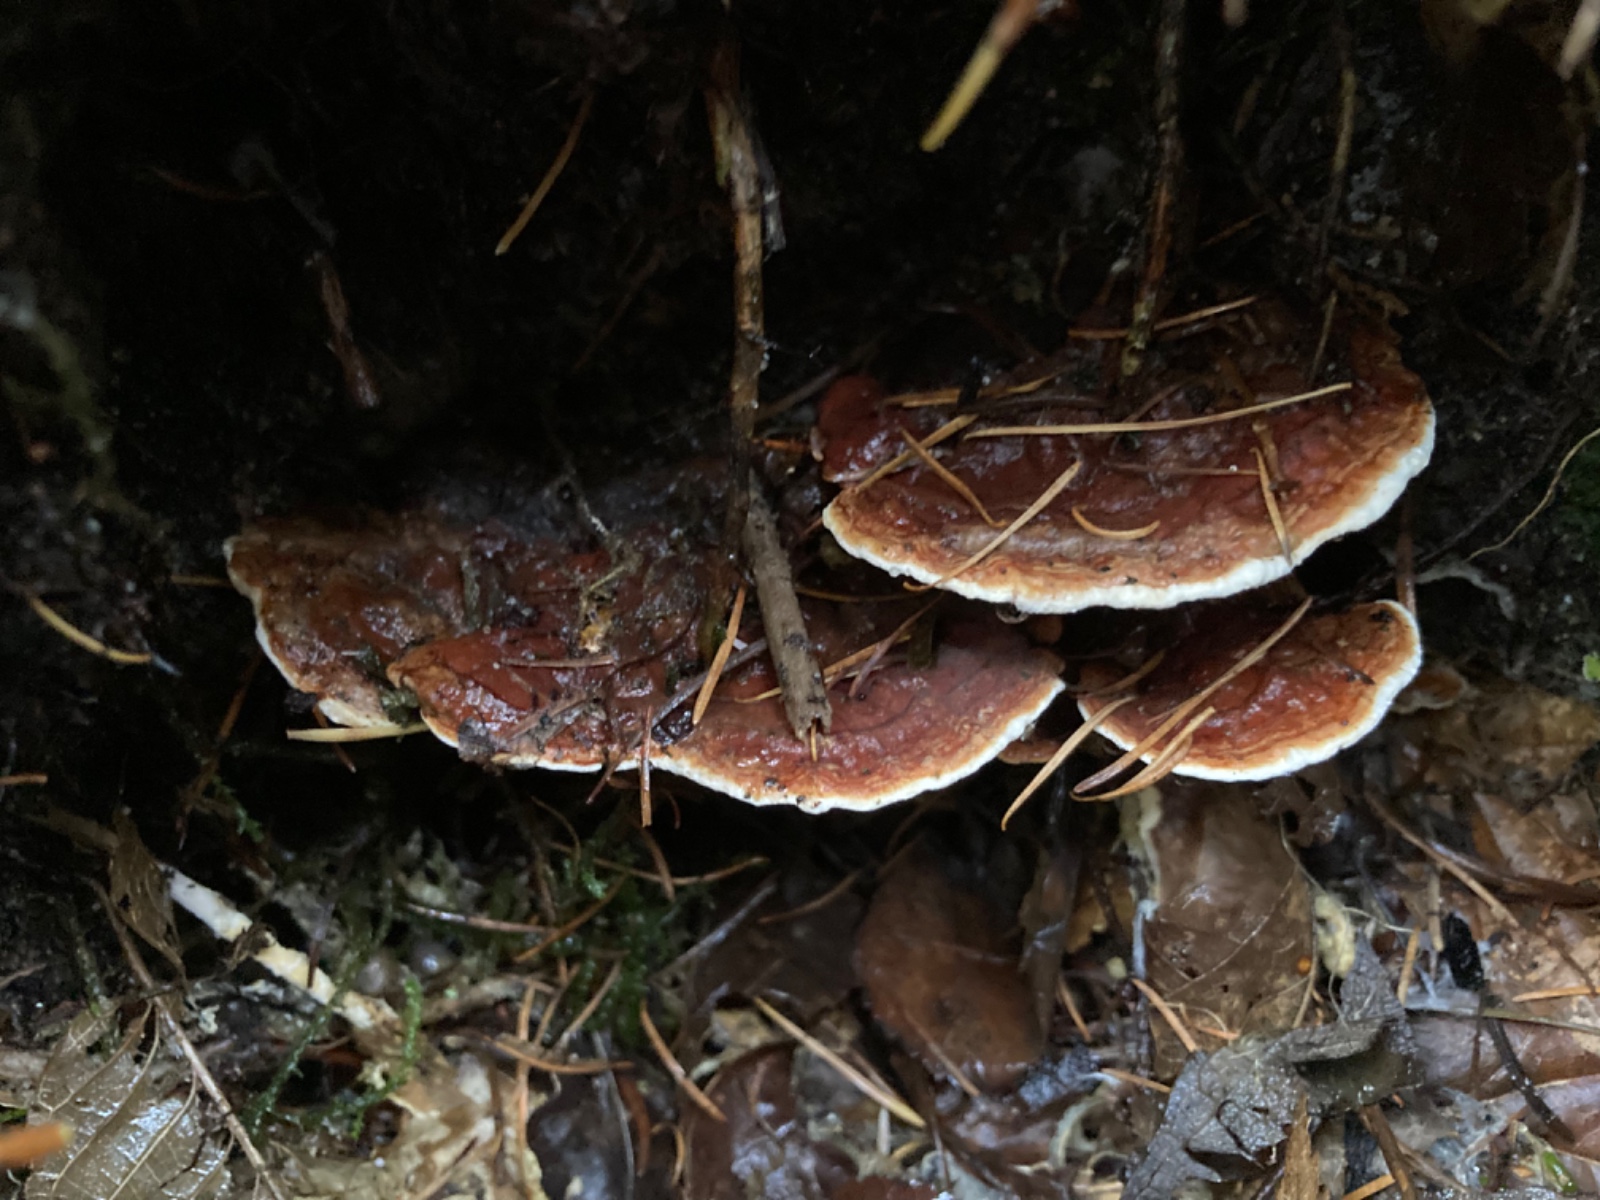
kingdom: Fungi
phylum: Basidiomycota
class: Agaricomycetes
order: Russulales
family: Bondarzewiaceae
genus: Heterobasidion
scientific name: Heterobasidion annosum
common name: almindelig rodfordærver
